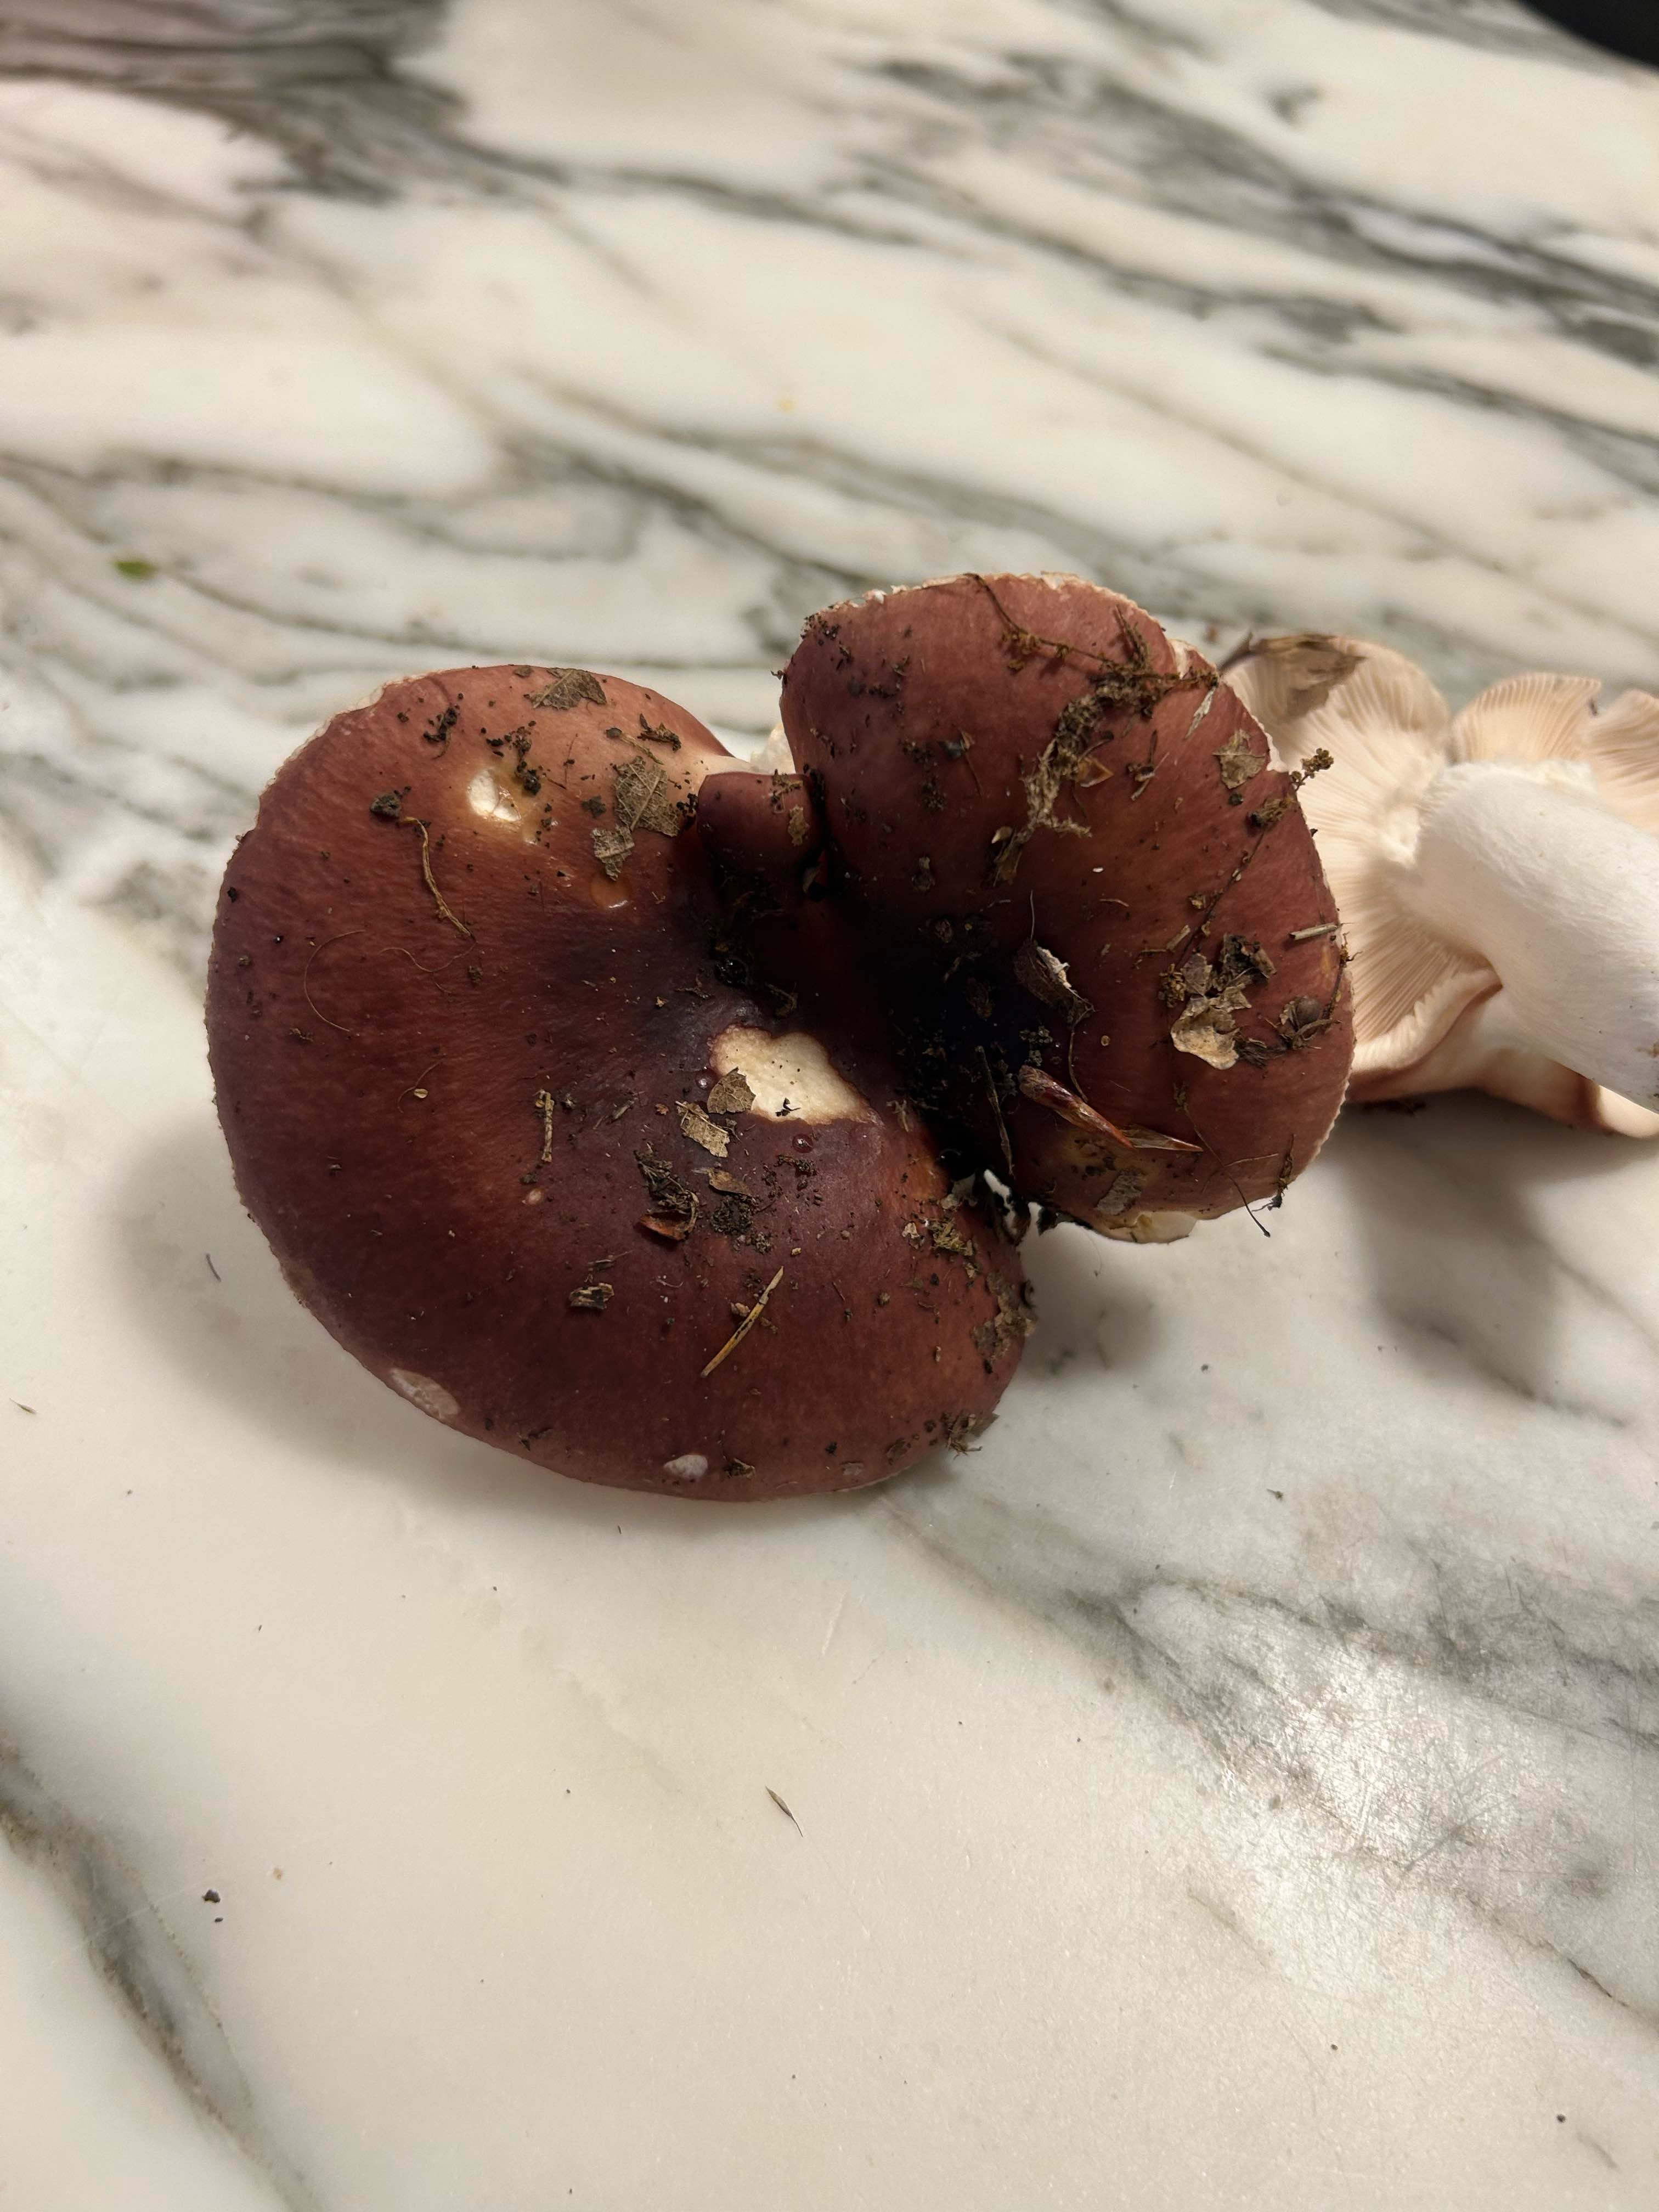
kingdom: Fungi
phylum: Basidiomycota
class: Agaricomycetes
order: Russulales
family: Russulaceae
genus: Russula
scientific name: Russula
